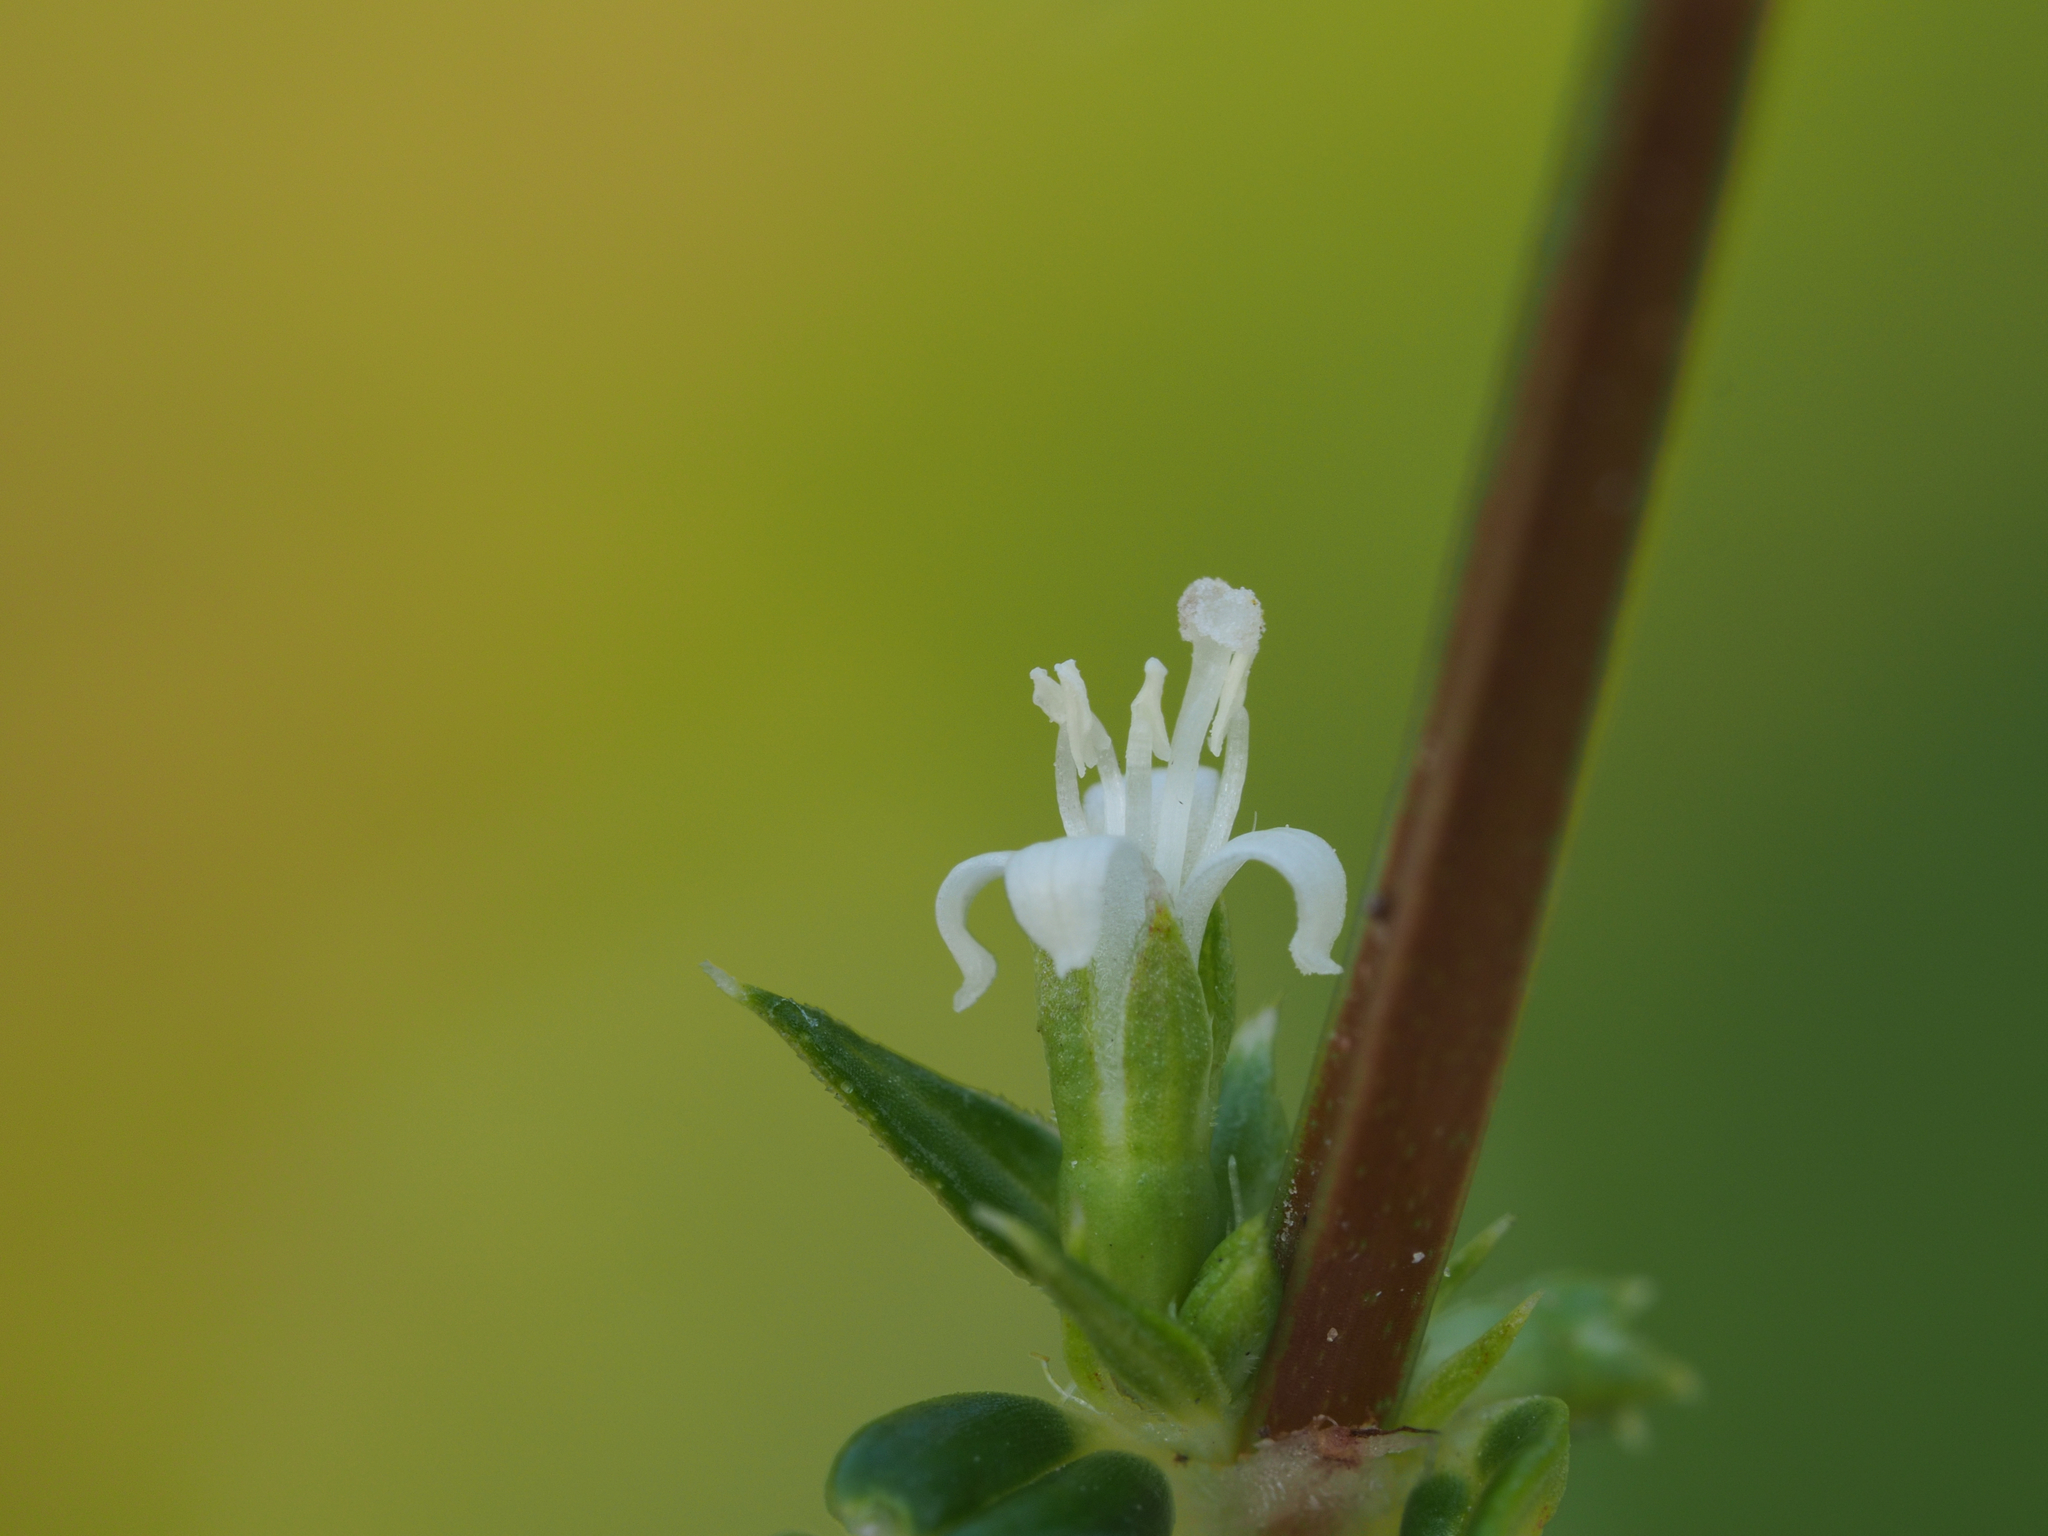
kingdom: Plantae
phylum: Tracheophyta
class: Magnoliopsida
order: Gentianales
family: Rubiaceae
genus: Scleromitrion
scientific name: Scleromitrion tenelliflorum
